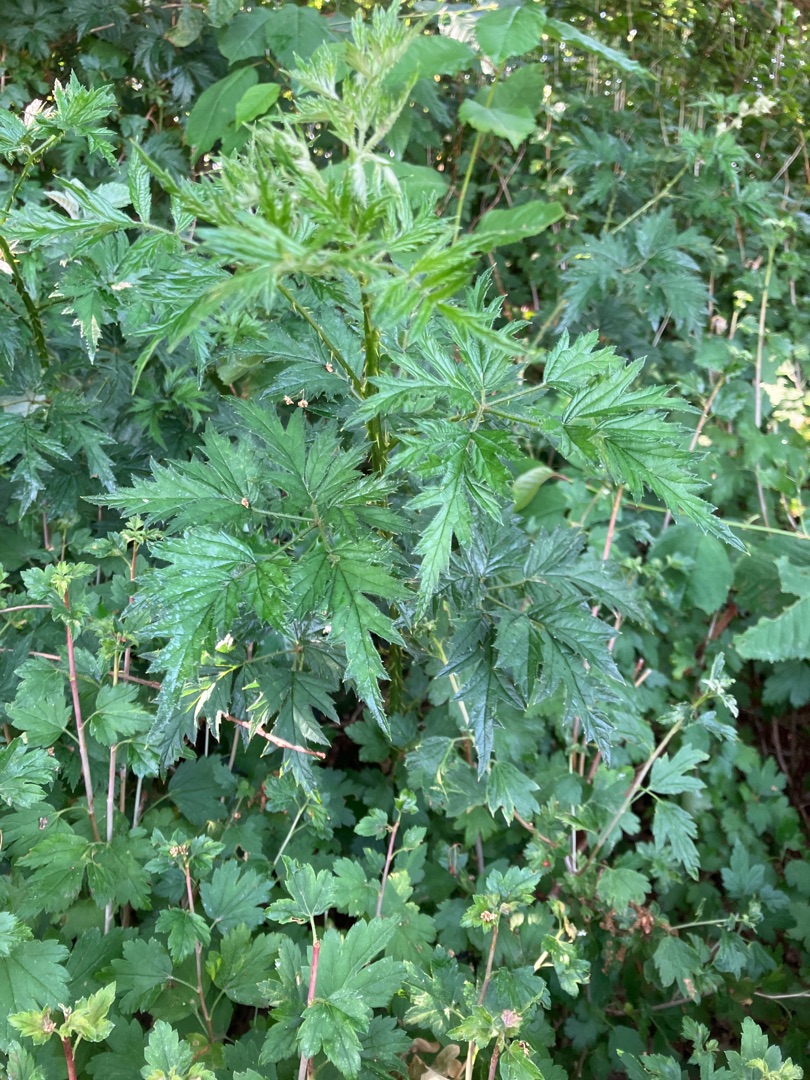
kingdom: Plantae
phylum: Tracheophyta
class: Magnoliopsida
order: Rosales
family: Rosaceae
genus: Rubus
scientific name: Rubus laciniatus
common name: Fliget brombær
